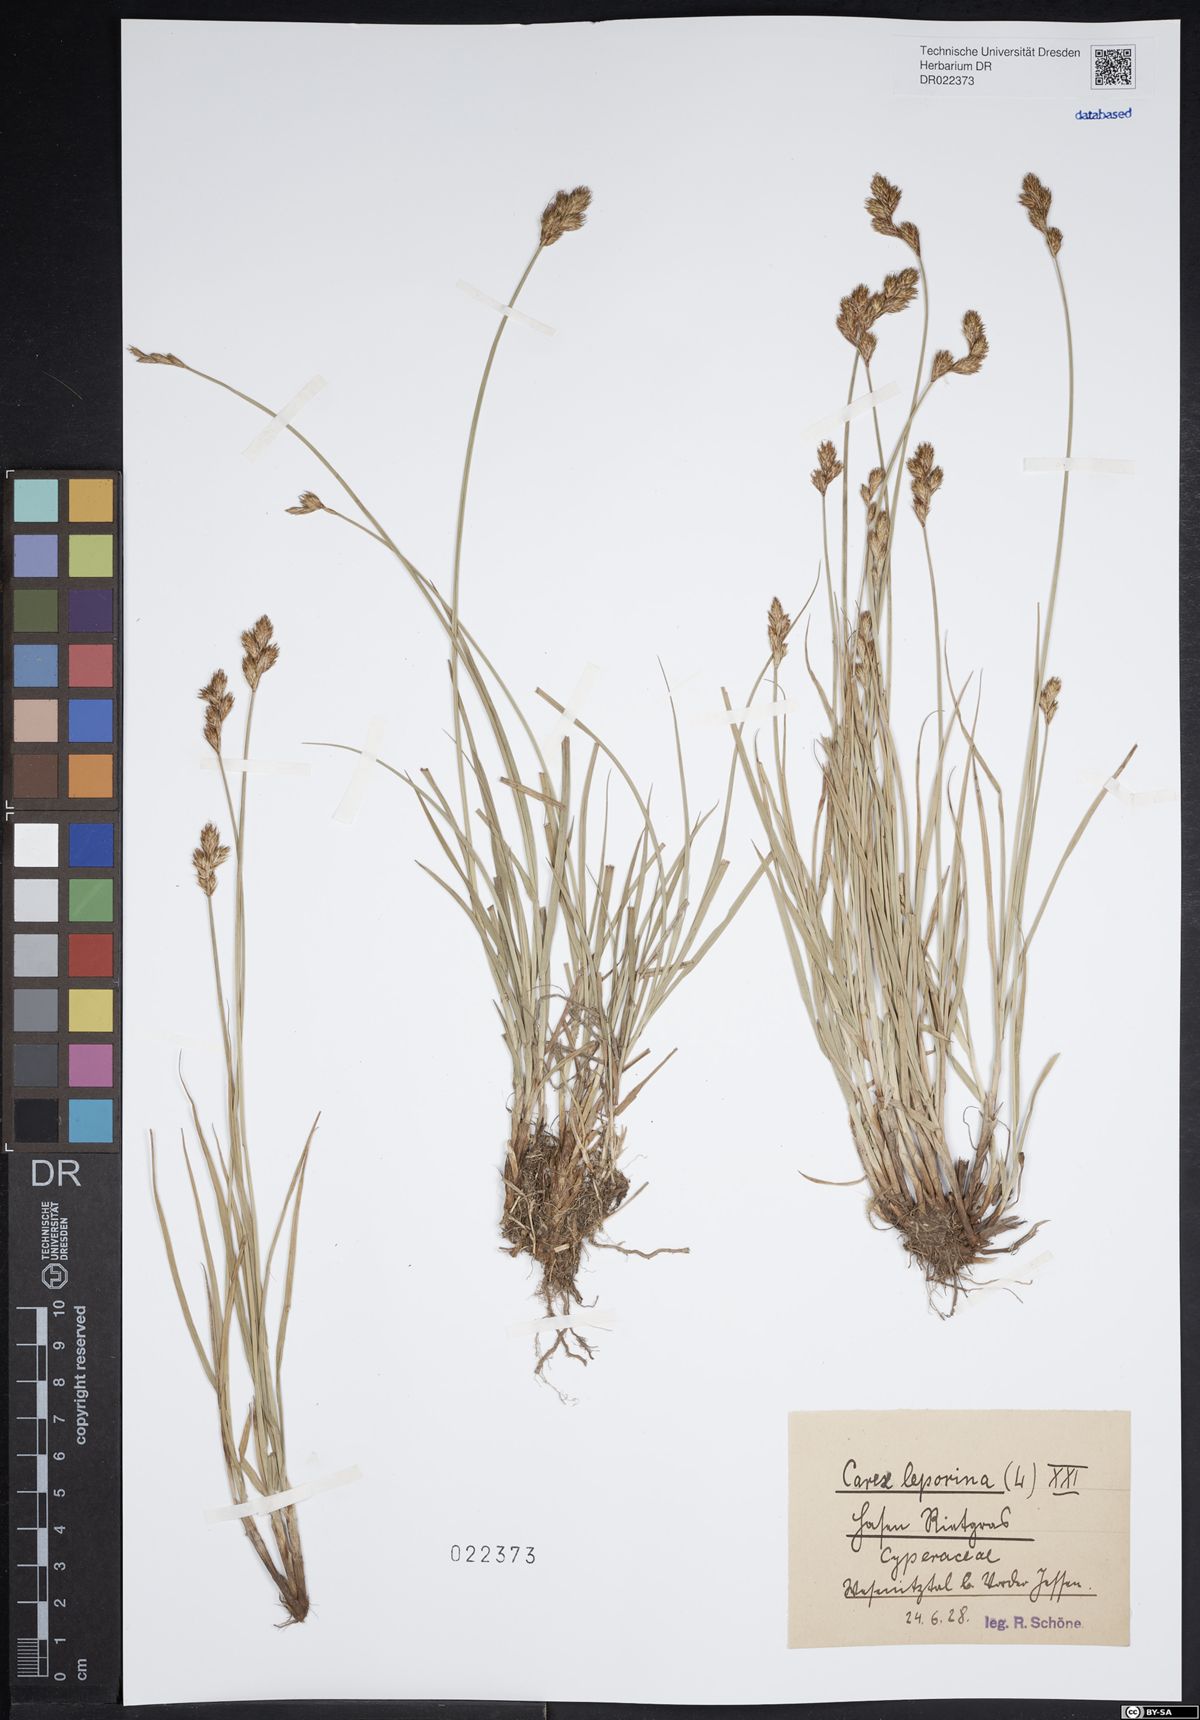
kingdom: Plantae
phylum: Tracheophyta
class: Liliopsida
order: Poales
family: Cyperaceae
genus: Carex
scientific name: Carex leporina
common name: Oval sedge
